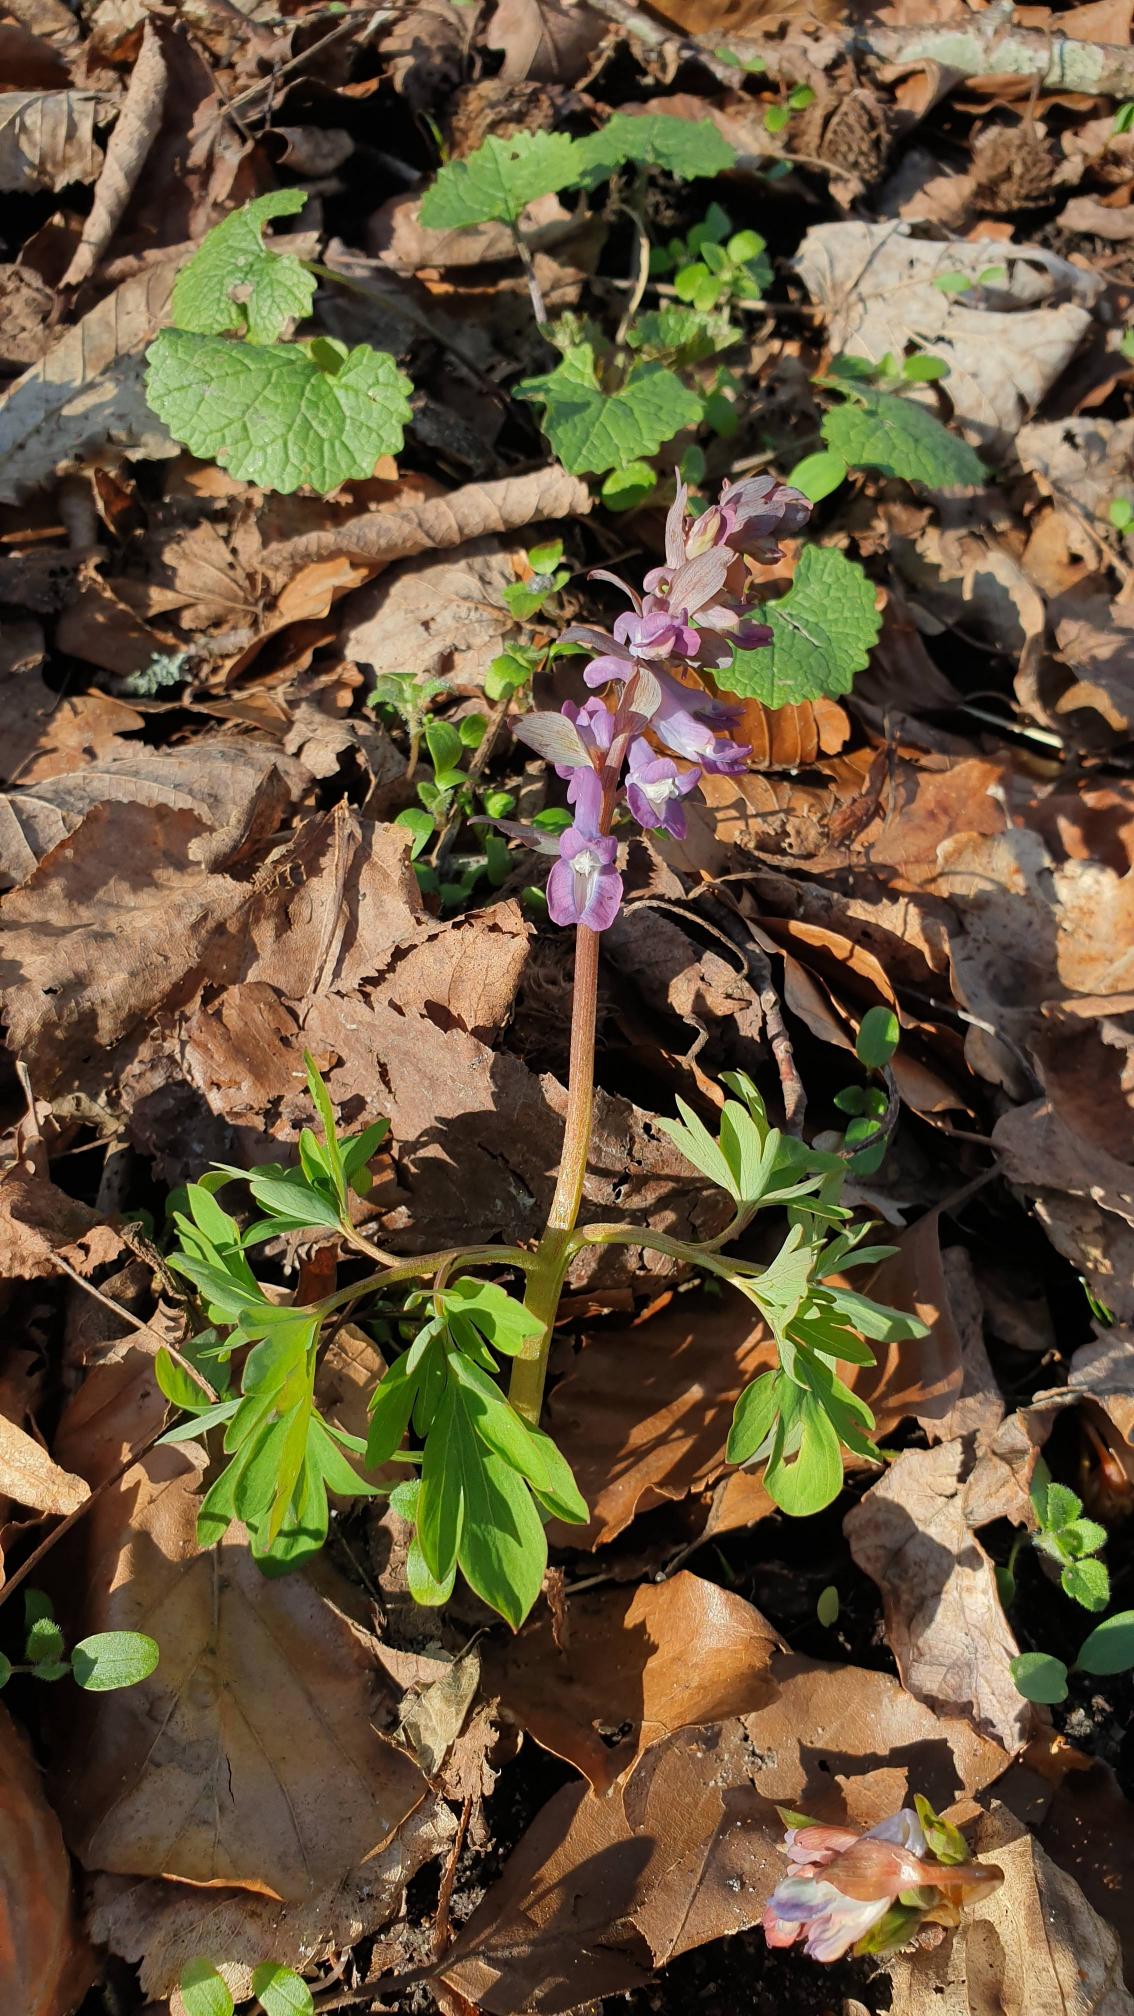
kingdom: Plantae
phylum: Tracheophyta
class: Magnoliopsida
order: Ranunculales
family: Papaveraceae
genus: Corydalis
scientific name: Corydalis cava
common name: Hulrodet lærkespore
